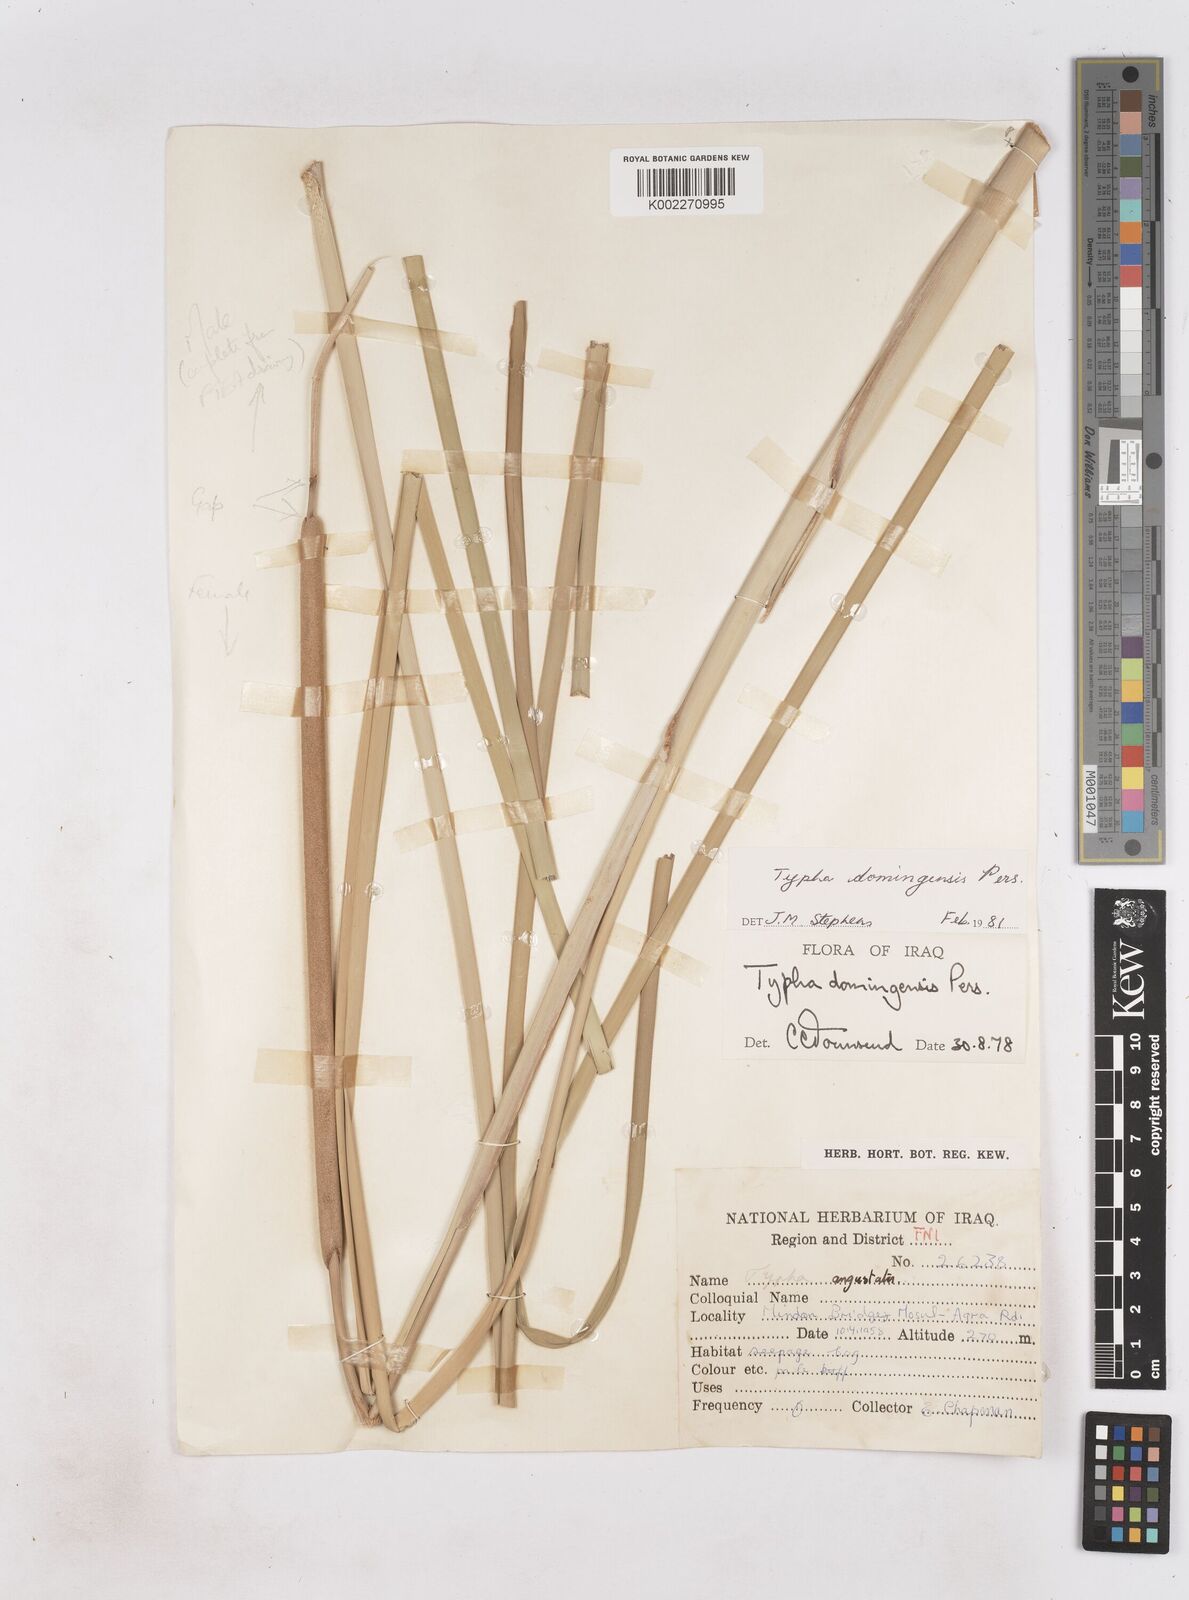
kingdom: Plantae
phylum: Tracheophyta
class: Liliopsida
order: Poales
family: Typhaceae
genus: Typha
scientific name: Typha domingensis
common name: Southern cattail
